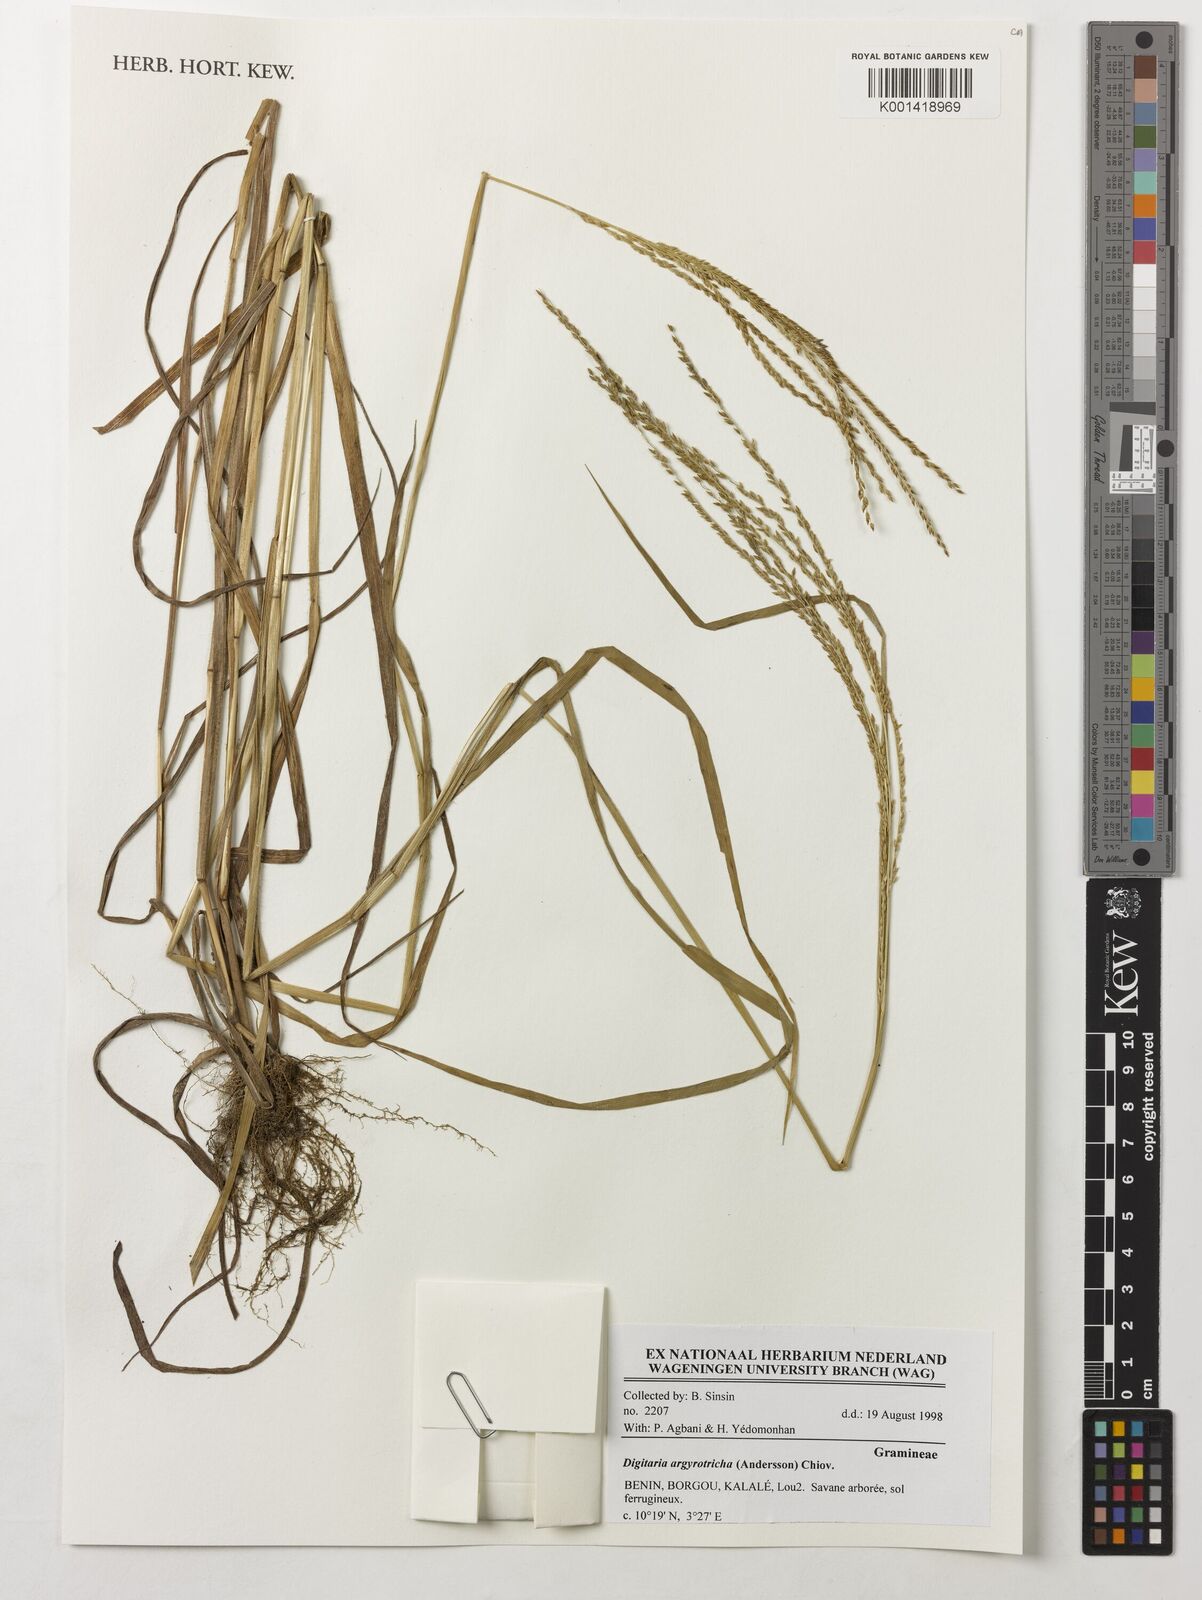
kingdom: Plantae
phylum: Tracheophyta
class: Liliopsida
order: Poales
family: Poaceae
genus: Digitaria
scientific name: Digitaria argyrotricha
